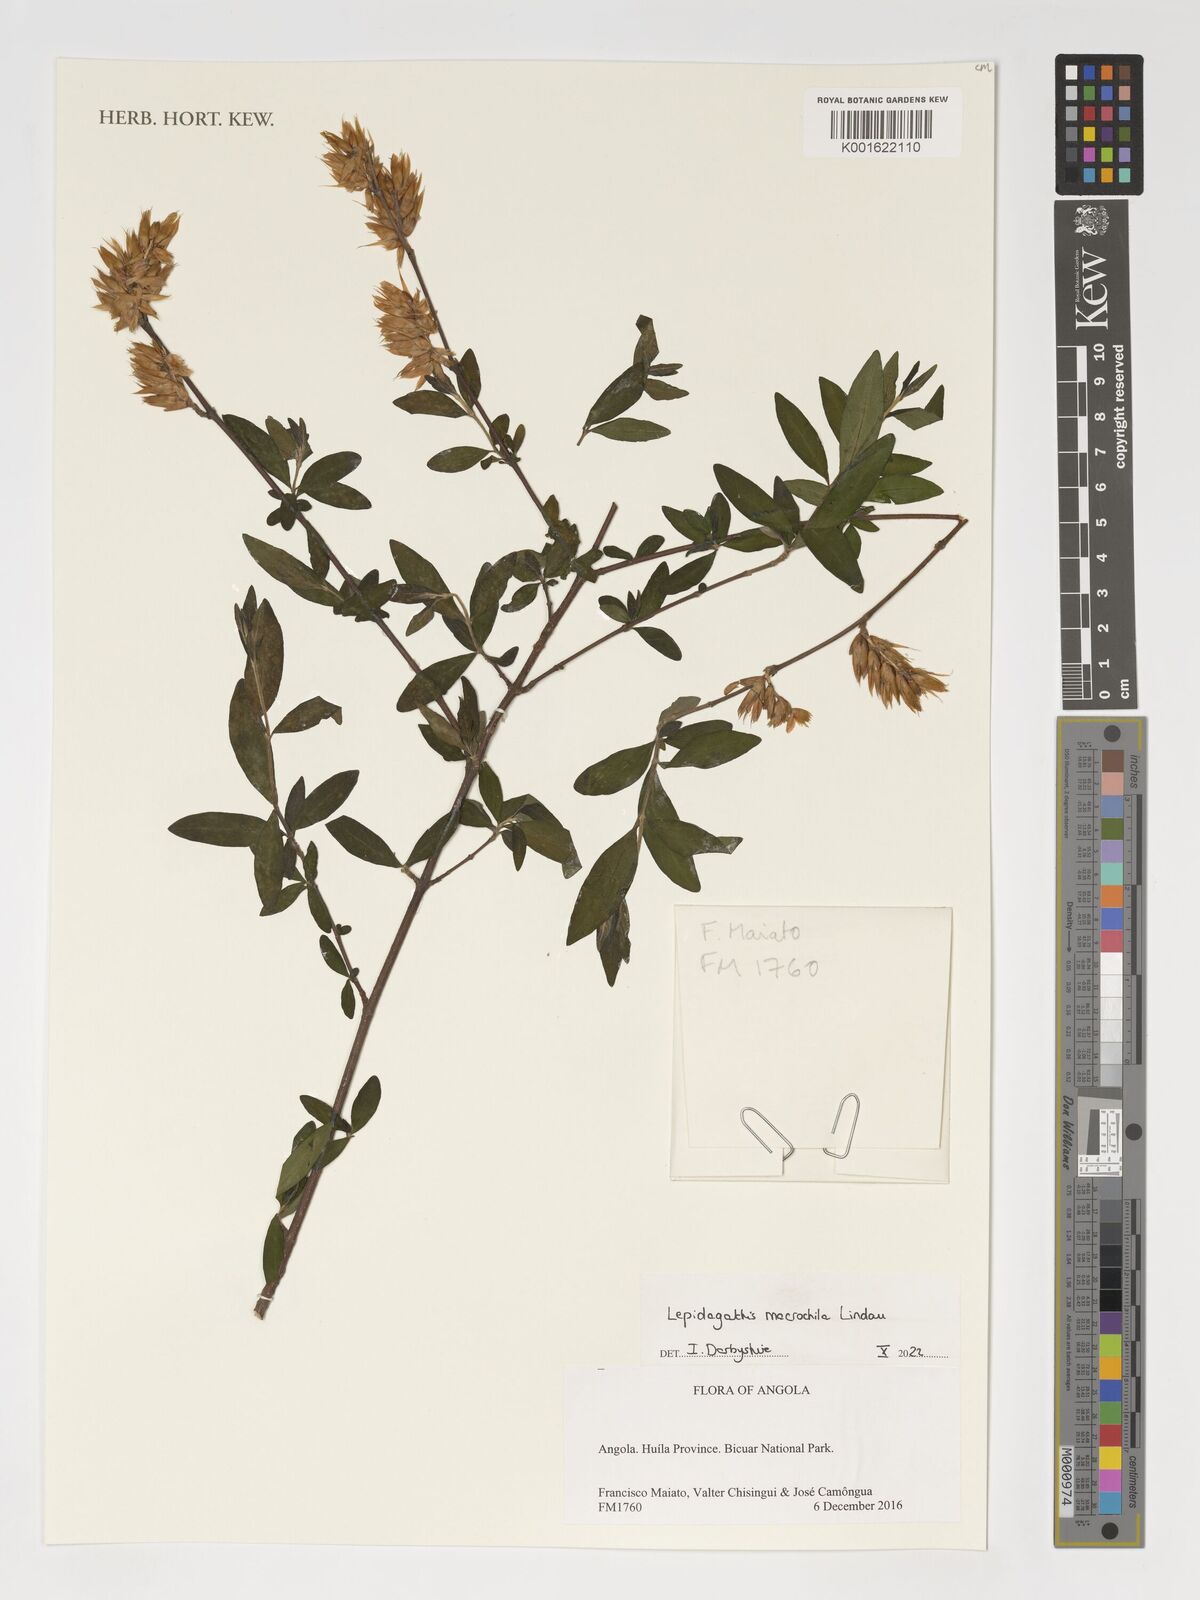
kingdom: Plantae
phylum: Tracheophyta
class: Magnoliopsida
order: Lamiales
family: Acanthaceae
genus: Lepidagathis
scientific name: Lepidagathis macrochila
